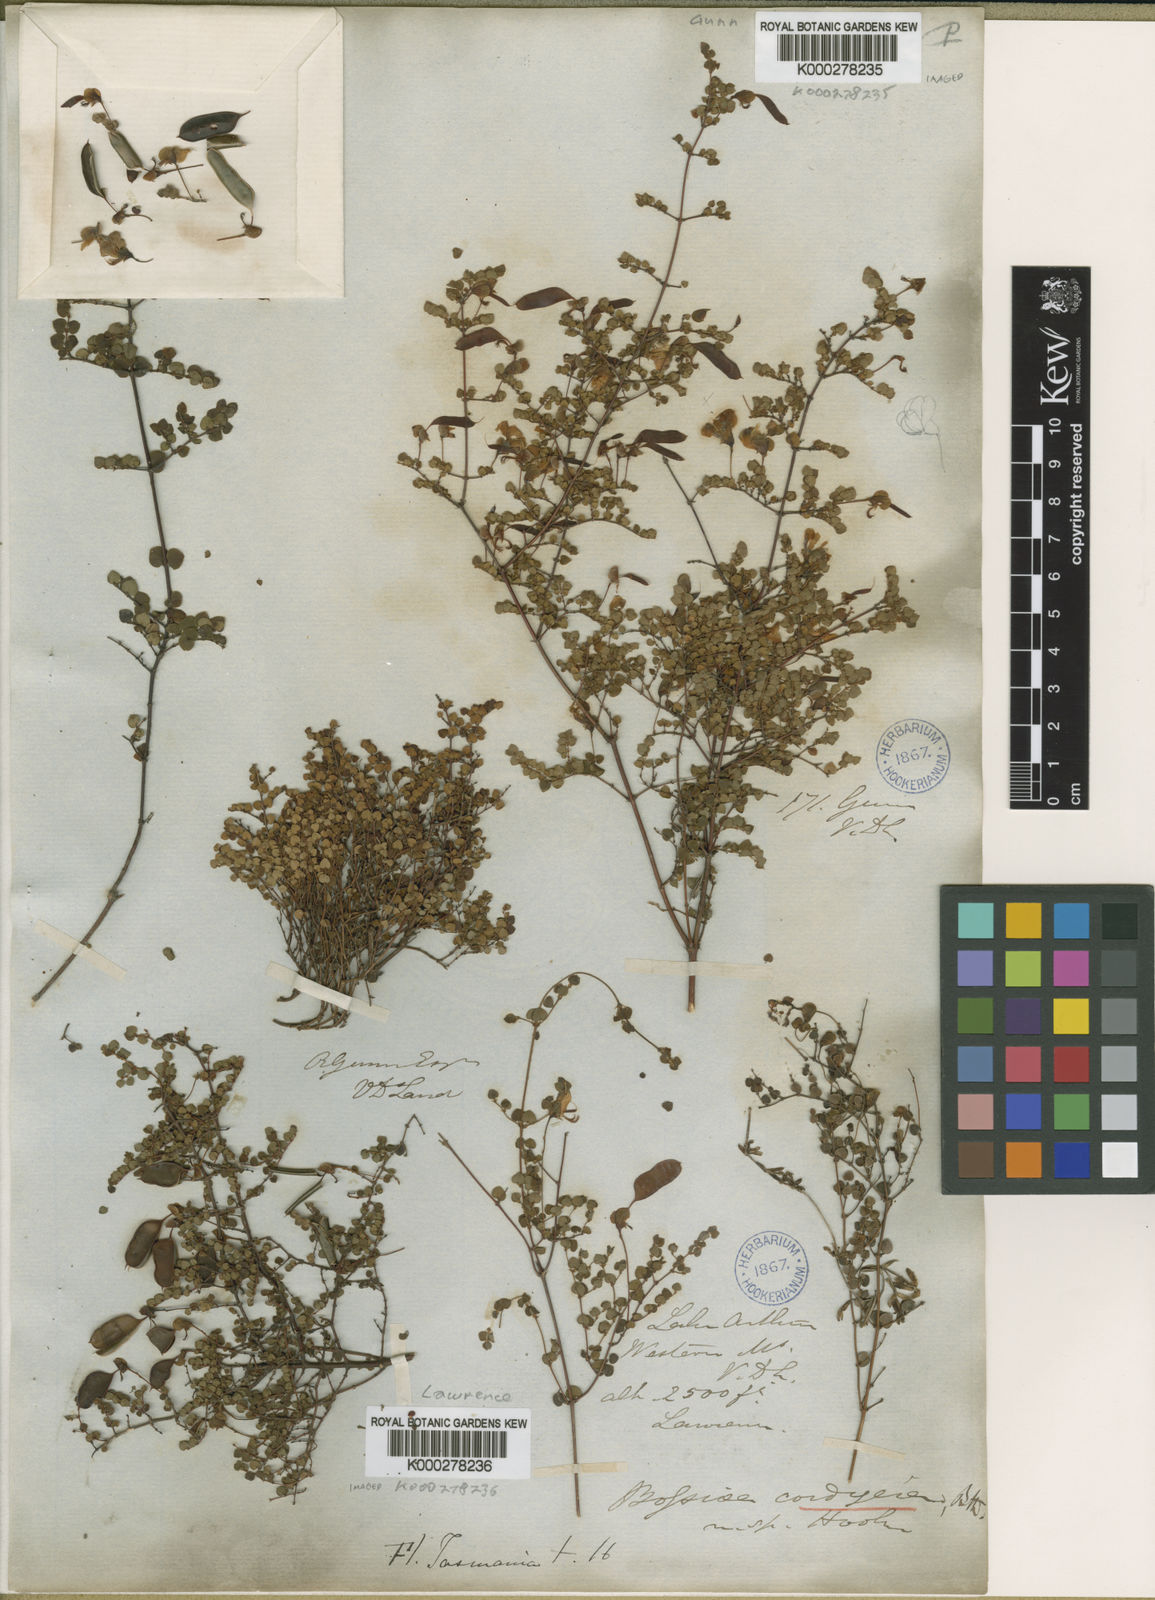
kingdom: Plantae
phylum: Tracheophyta
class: Magnoliopsida
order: Fabales
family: Fabaceae
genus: Bossiaea
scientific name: Bossiaea hendersonii
